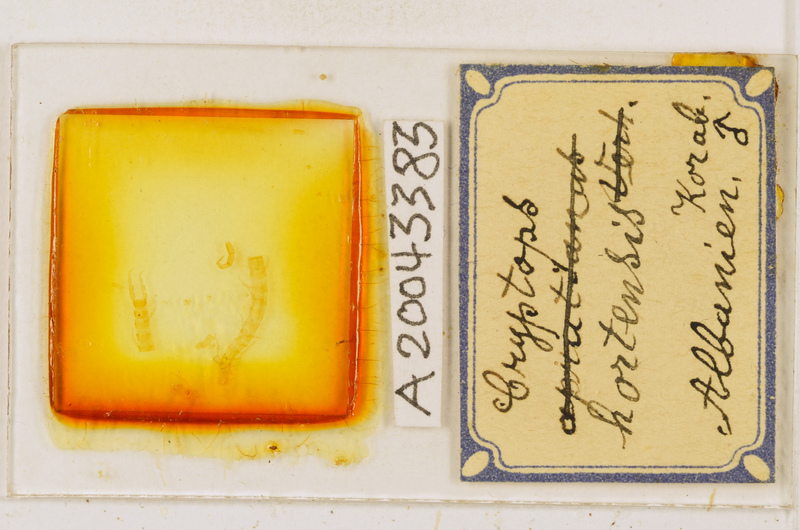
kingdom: Animalia
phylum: Arthropoda
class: Chilopoda
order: Scolopendromorpha
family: Cryptopidae
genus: Cryptops
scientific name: Cryptops hortensis
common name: Centipede
